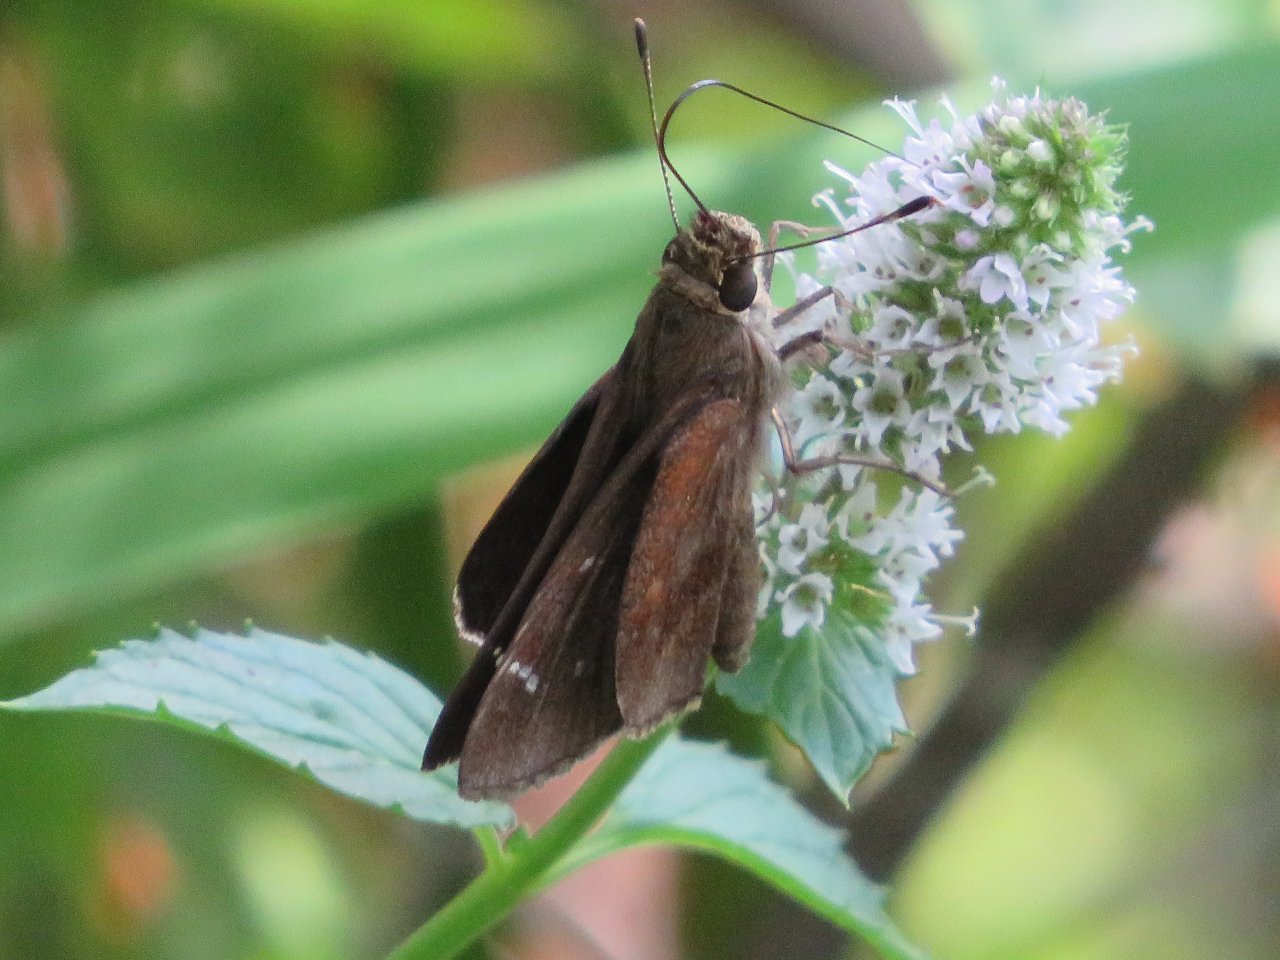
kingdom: Animalia
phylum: Arthropoda
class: Insecta
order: Lepidoptera
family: Hesperiidae
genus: Lerema
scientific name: Lerema accius
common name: Clouded Skipper
